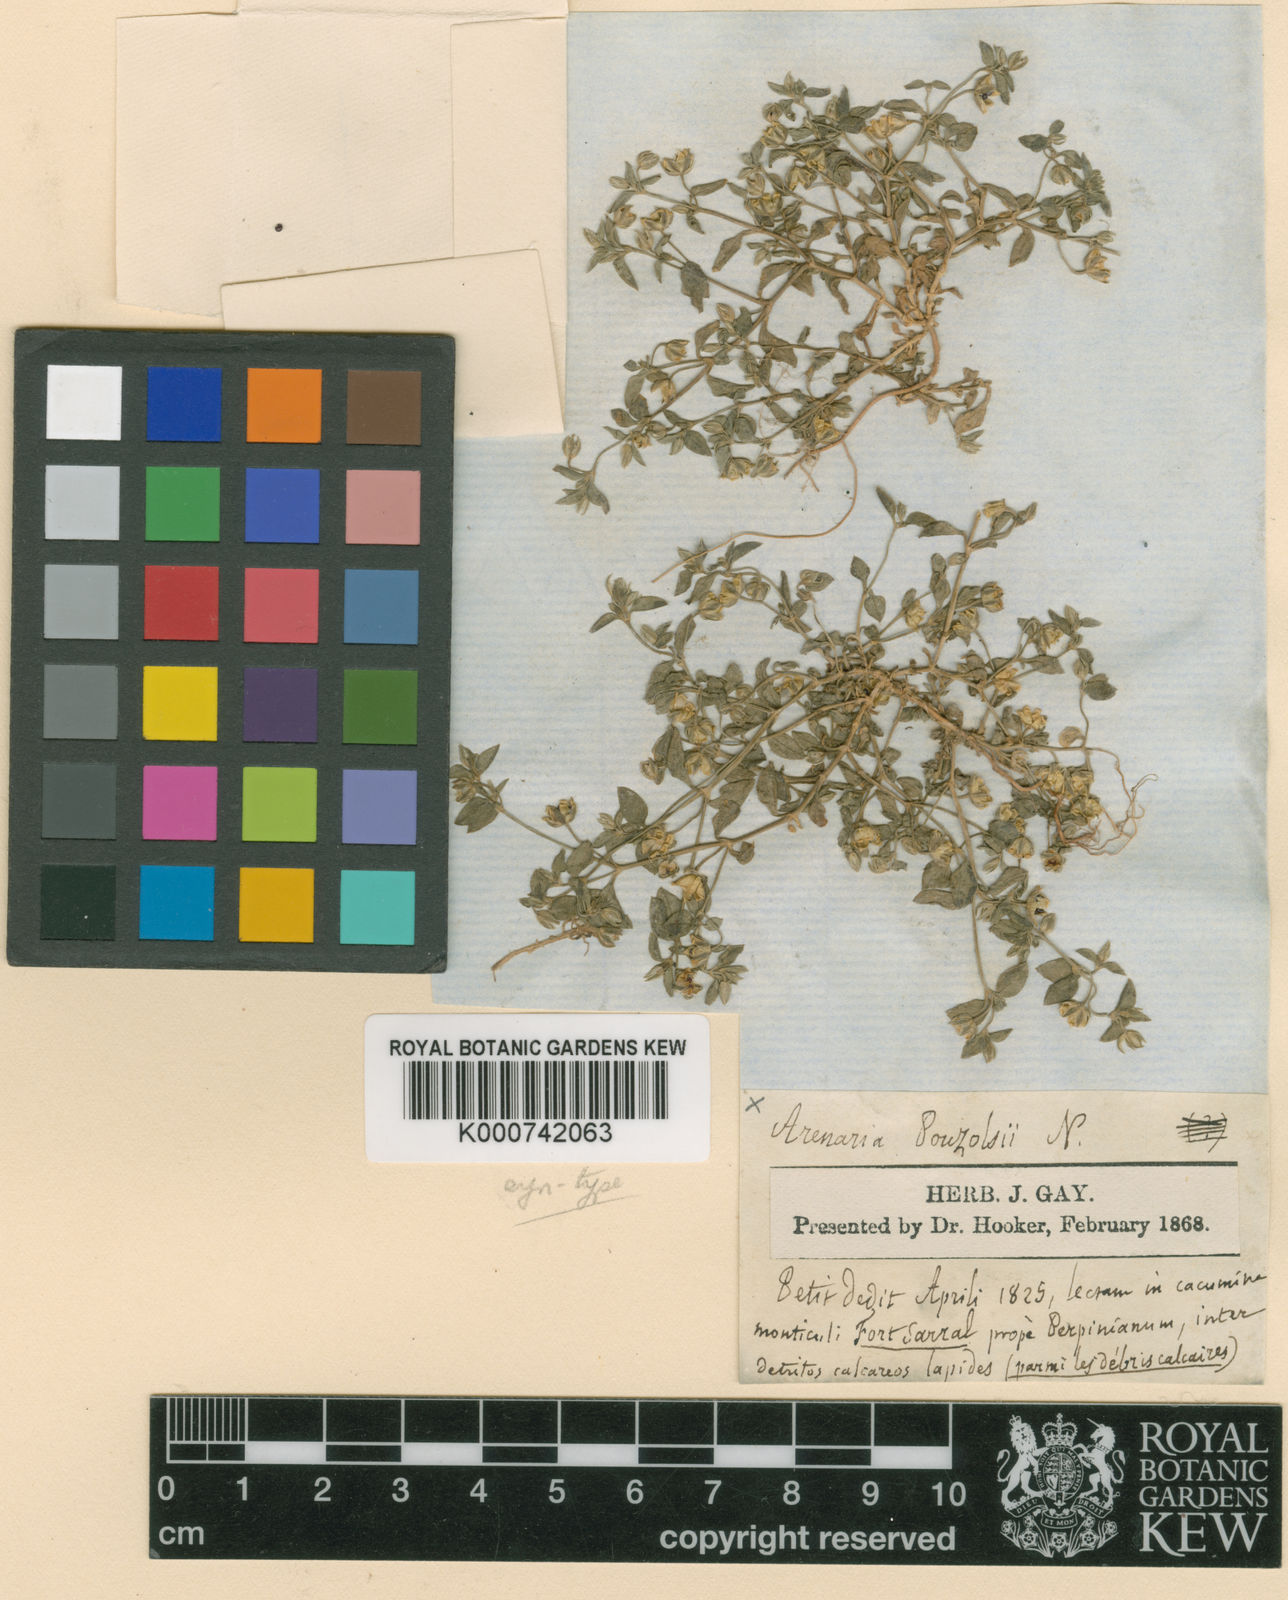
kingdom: Plantae
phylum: Tracheophyta
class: Magnoliopsida
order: Caryophyllales
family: Caryophyllaceae
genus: Moehringia
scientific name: Moehringia pentandra
